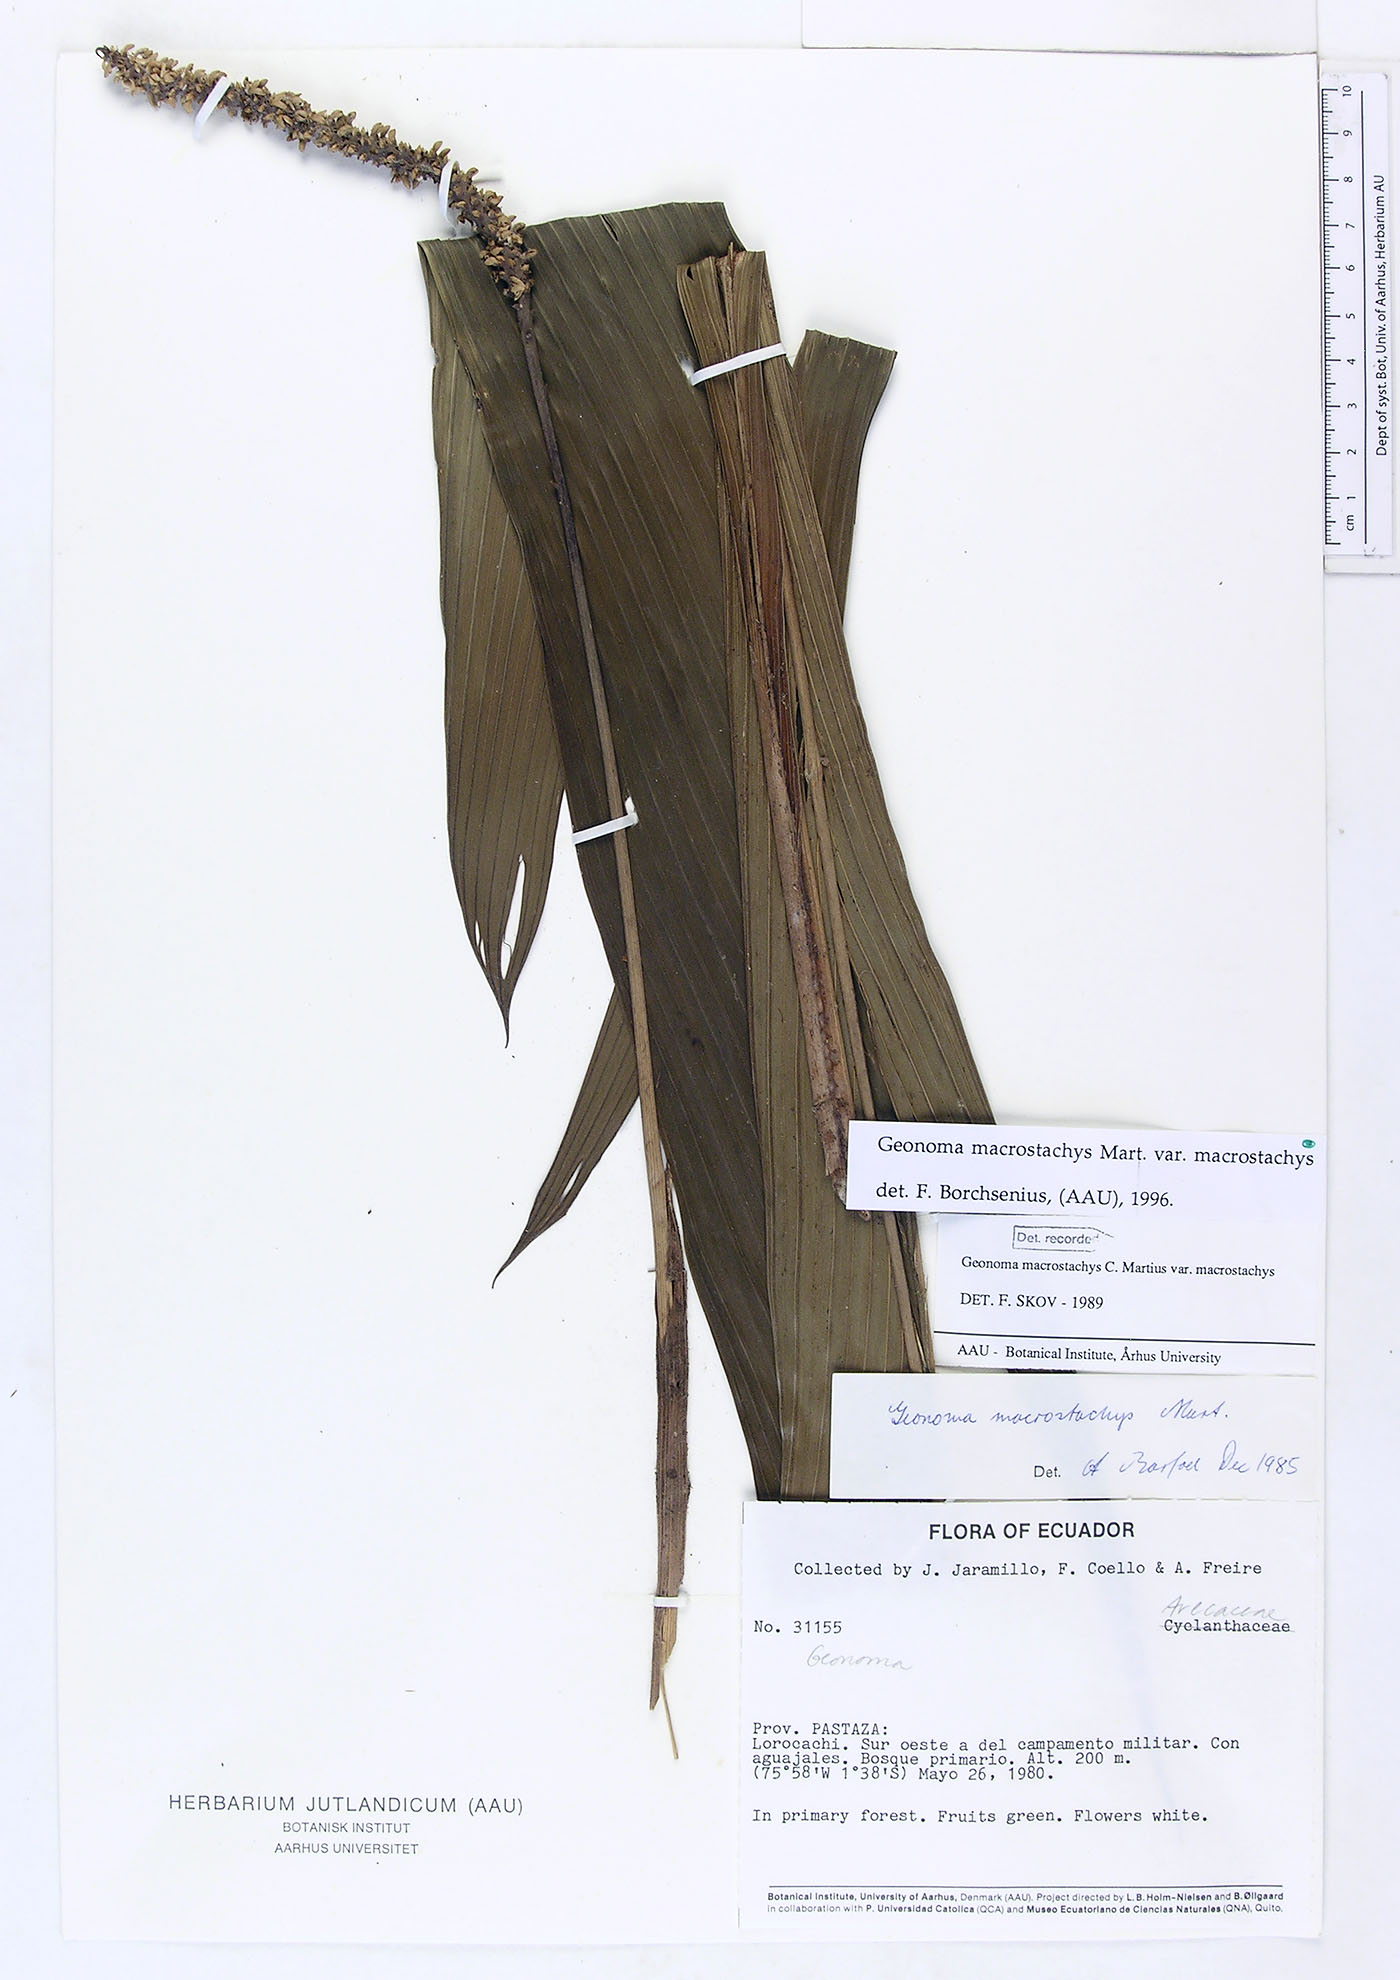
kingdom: Plantae
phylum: Tracheophyta
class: Liliopsida
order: Arecales
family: Arecaceae
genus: Geonoma
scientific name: Geonoma macrostachys
